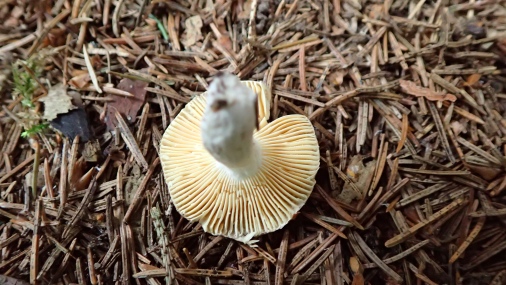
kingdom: Fungi
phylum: Basidiomycota
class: Agaricomycetes
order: Russulales
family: Russulaceae
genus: Russula
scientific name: Russula nauseosa
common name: spinkel skørhat
